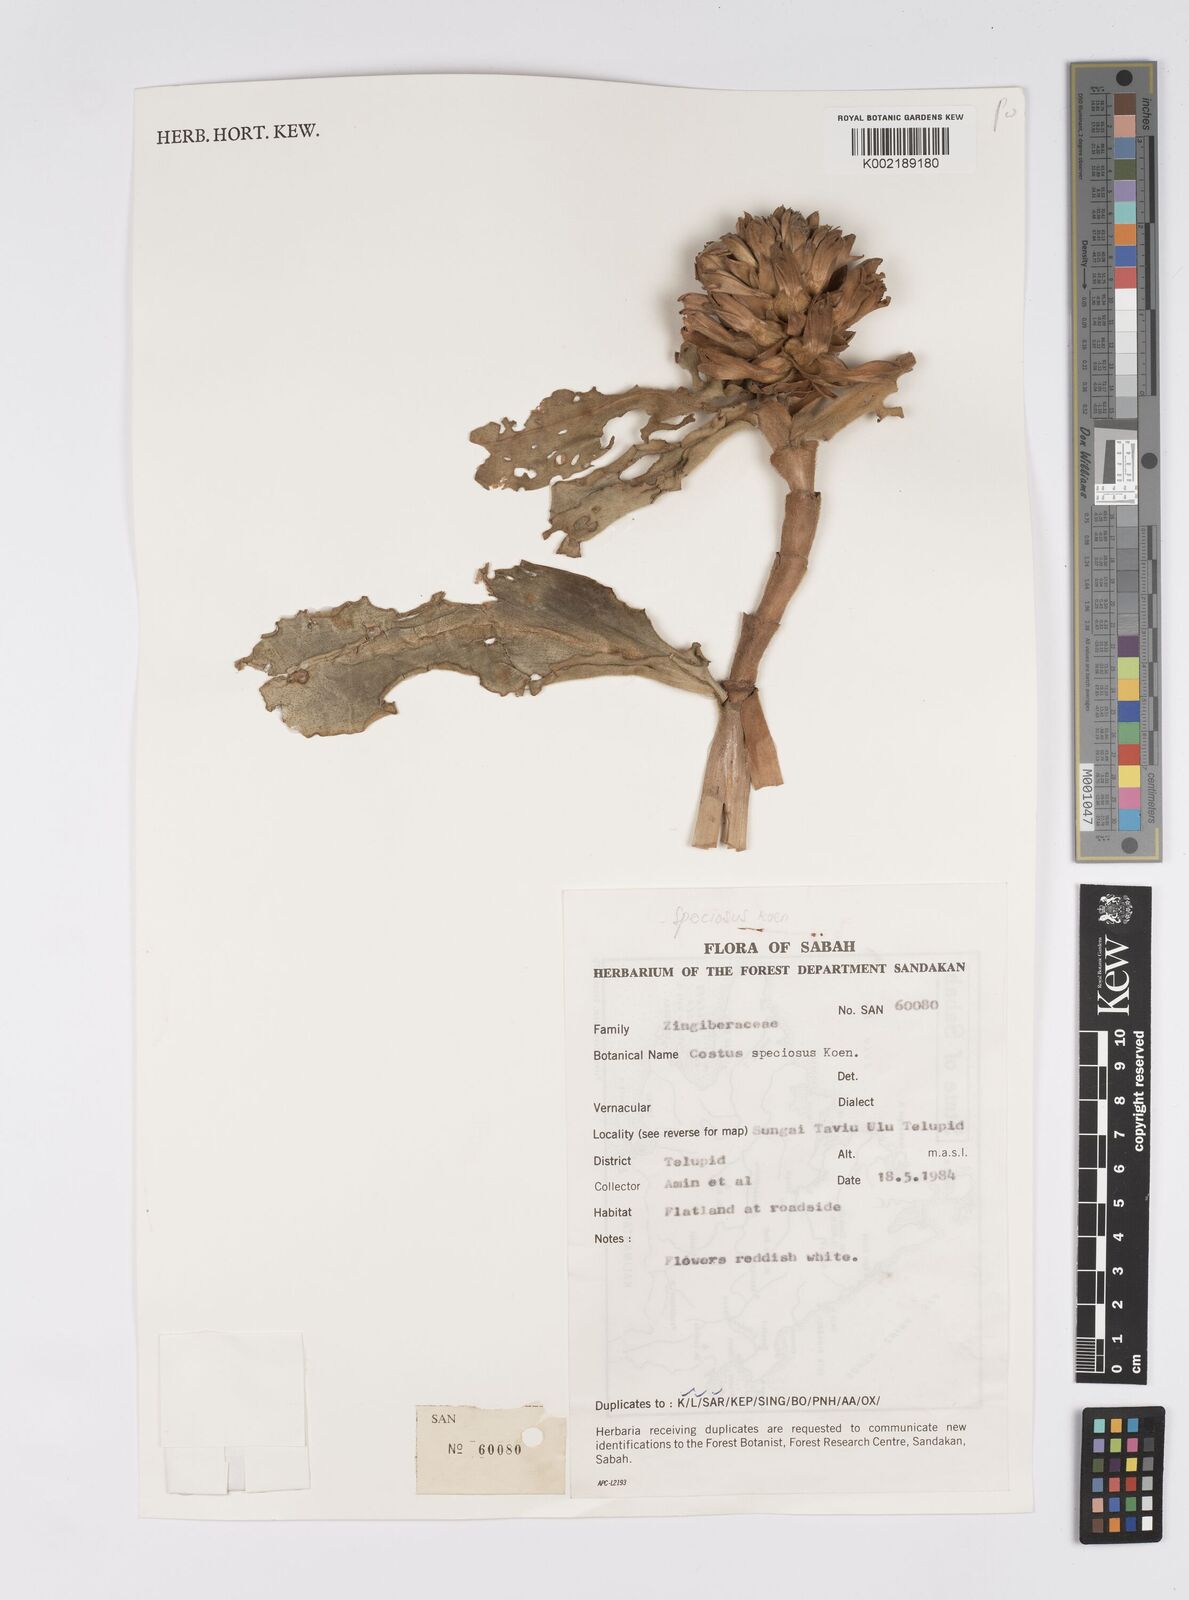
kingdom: Plantae
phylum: Tracheophyta
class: Liliopsida
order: Zingiberales
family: Costaceae
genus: Hellenia
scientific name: Hellenia speciosa
